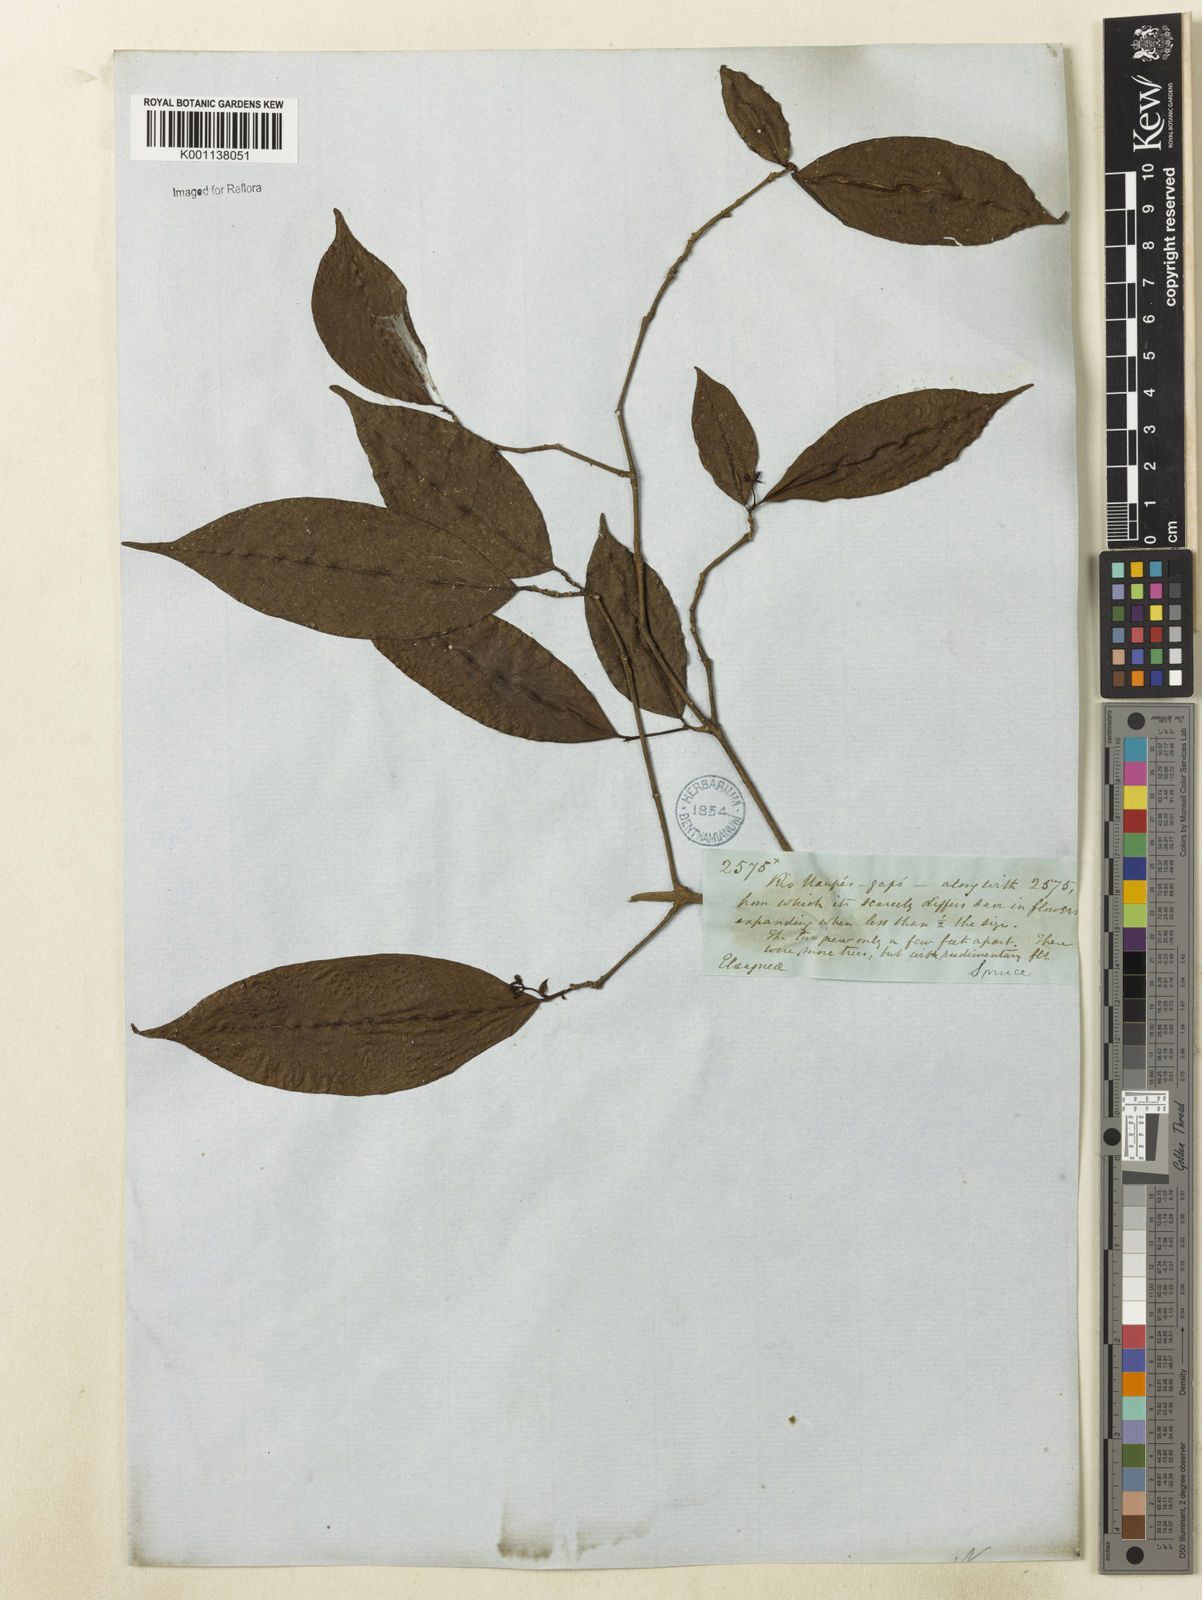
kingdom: Plantae
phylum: Tracheophyta
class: Magnoliopsida
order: Caryophyllales
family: Nyctaginaceae
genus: Neea
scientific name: Neea
